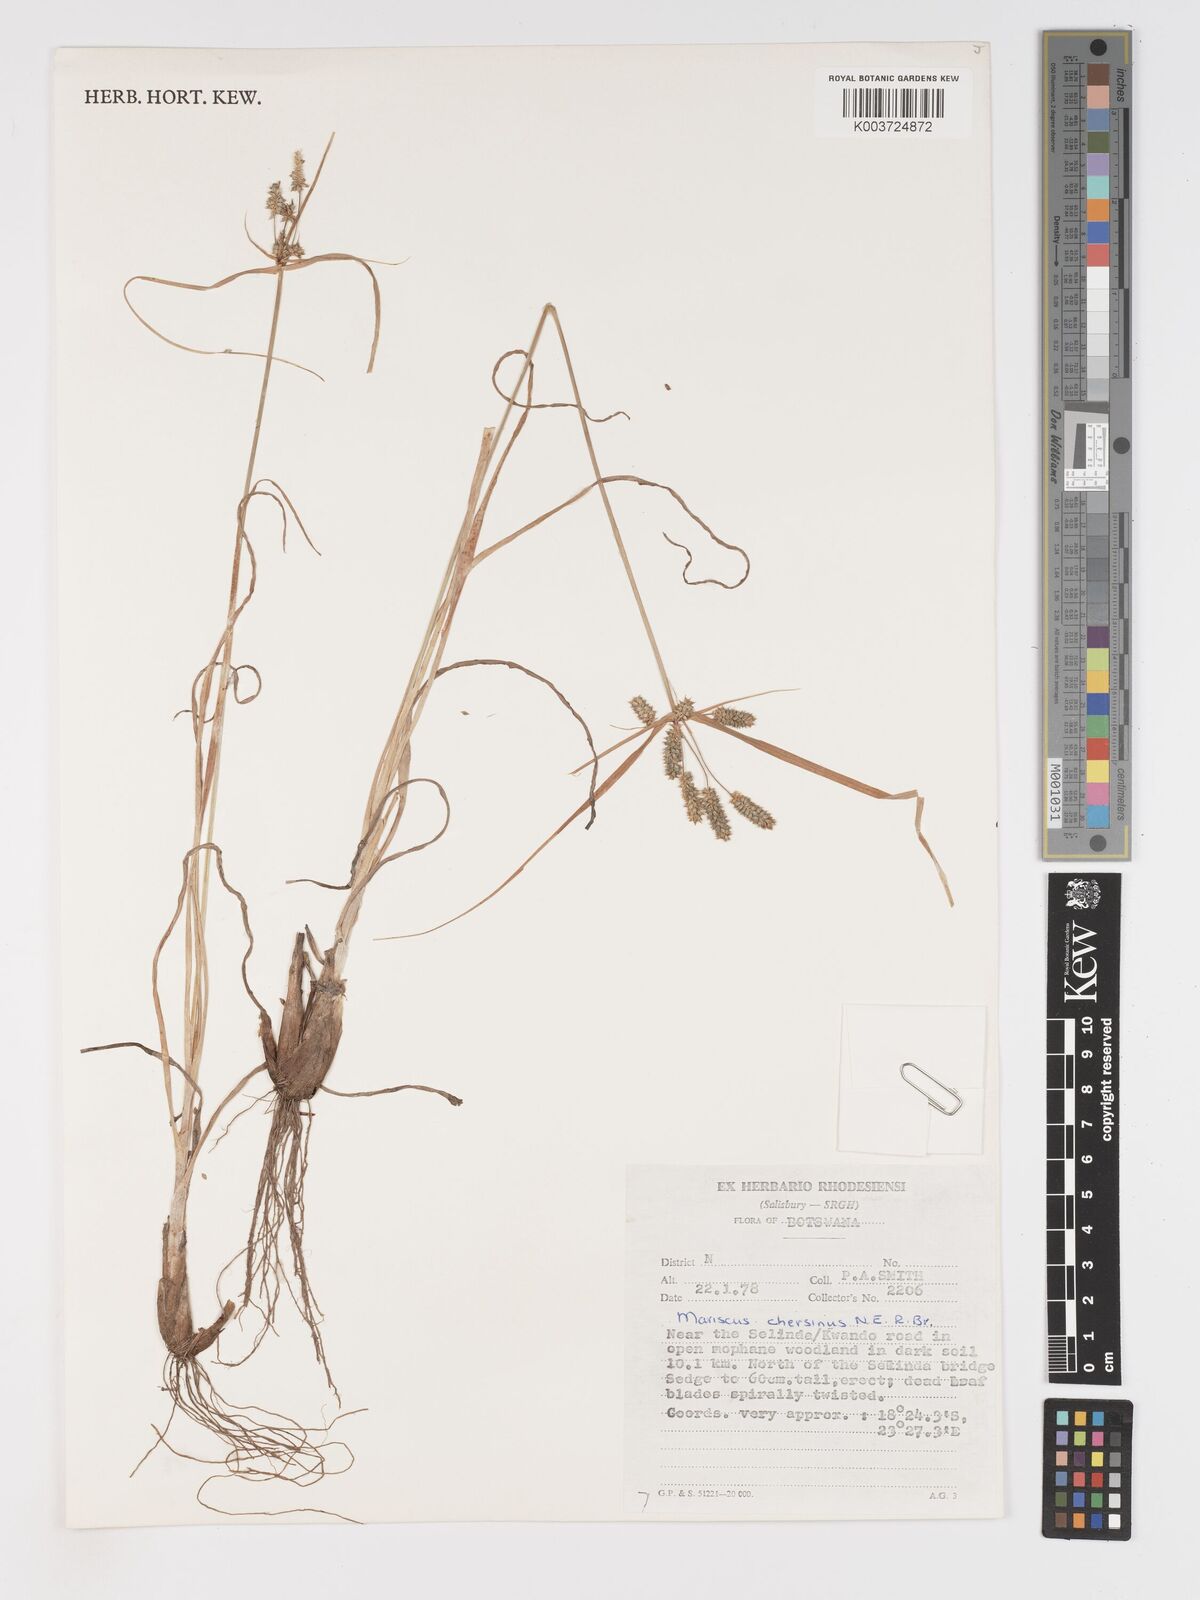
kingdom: Plantae
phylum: Tracheophyta
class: Liliopsida
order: Poales
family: Cyperaceae
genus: Cyperus
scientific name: Cyperus chersinus
